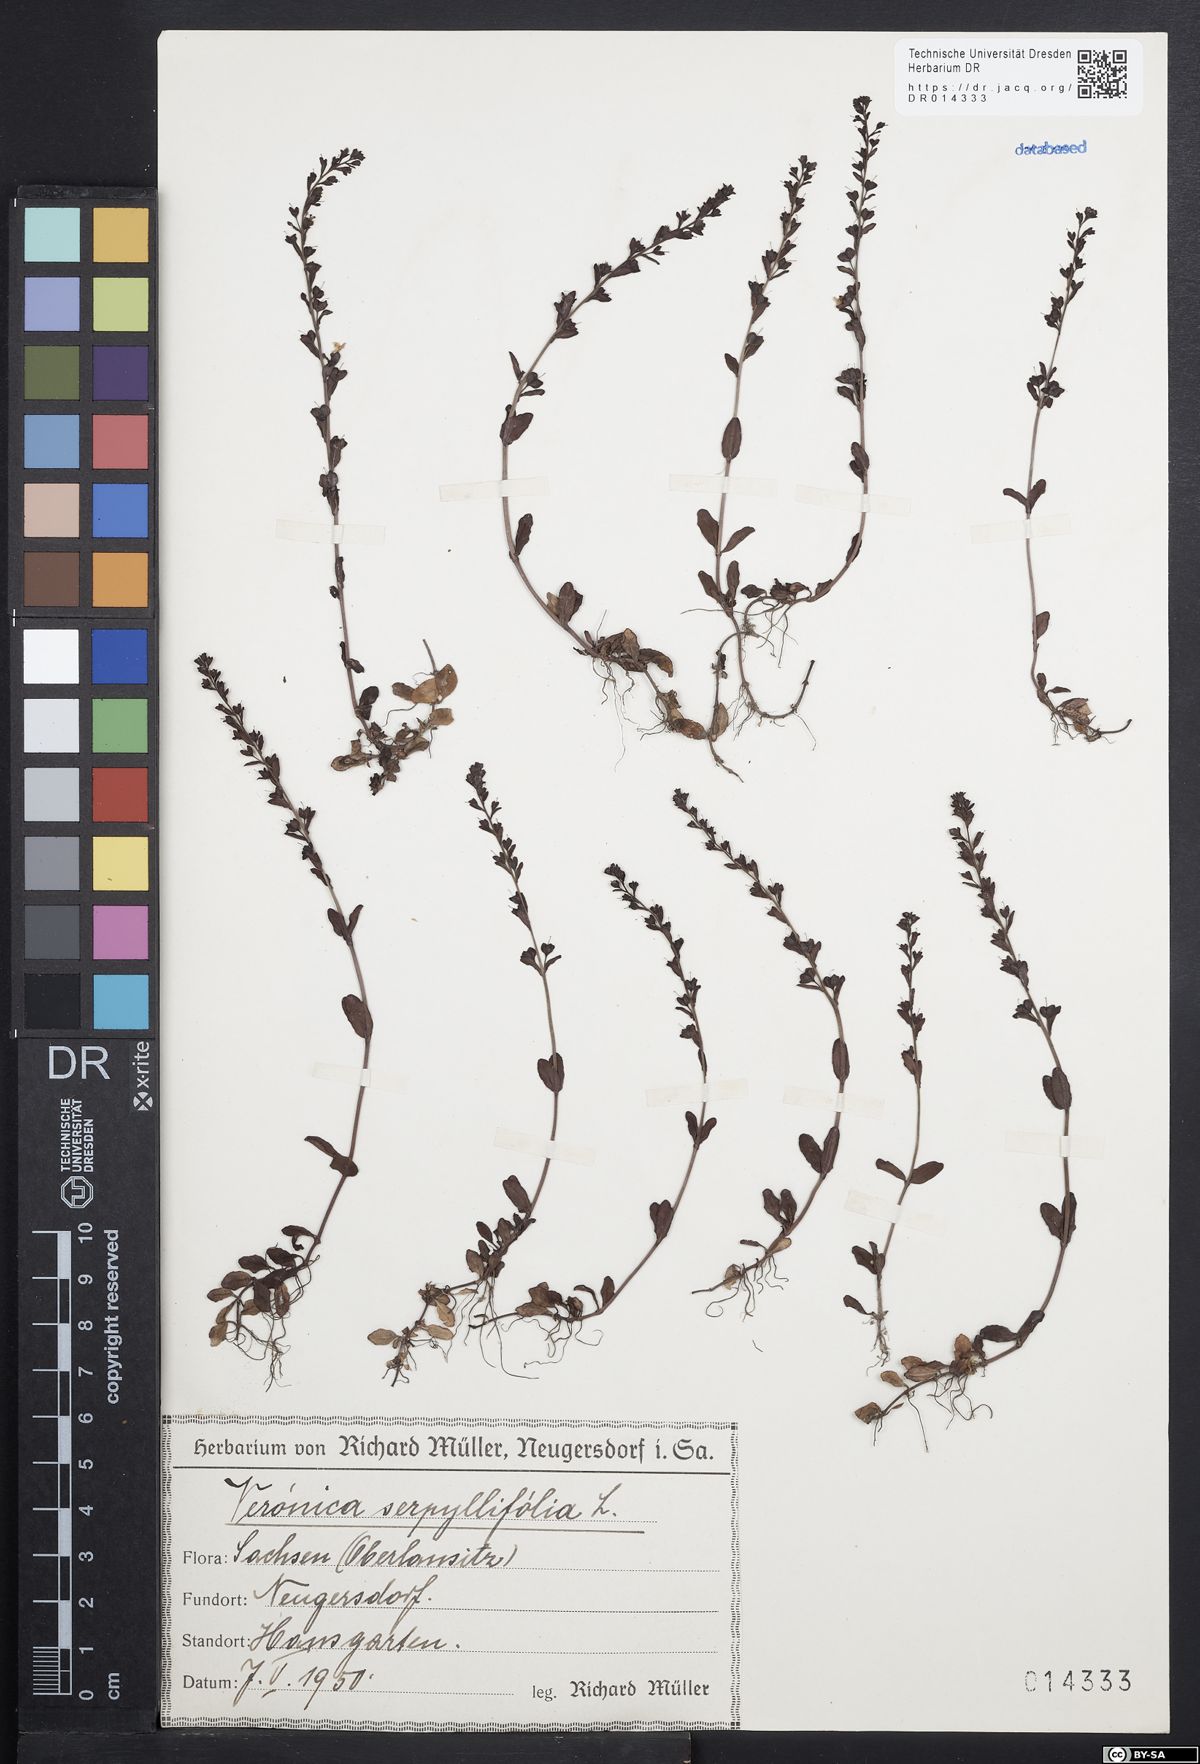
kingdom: Plantae
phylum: Tracheophyta
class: Magnoliopsida
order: Lamiales
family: Plantaginaceae
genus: Veronica
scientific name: Veronica serpyllifolia
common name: Thyme-leaved speedwell
